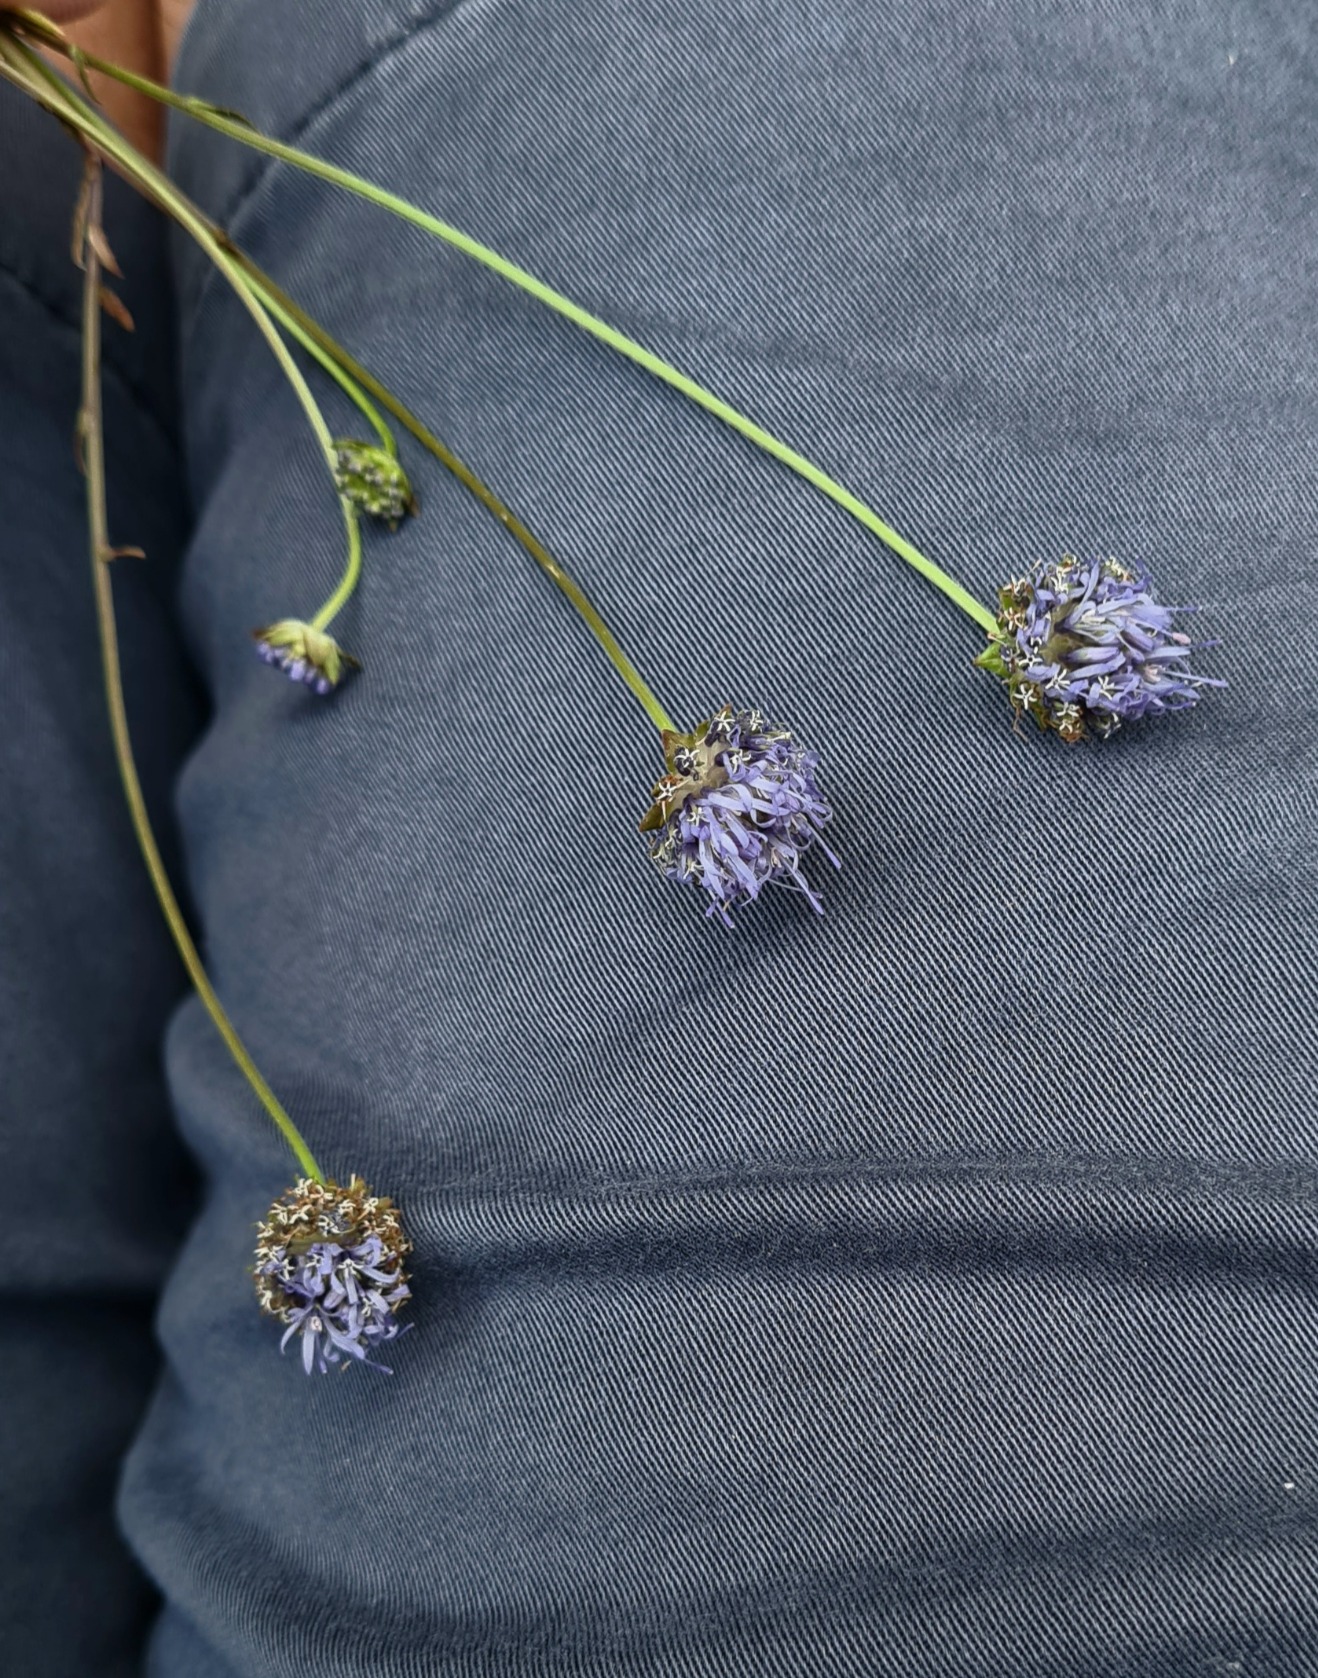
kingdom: Plantae
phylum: Tracheophyta
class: Magnoliopsida
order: Asterales
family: Campanulaceae
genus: Jasione
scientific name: Jasione montana
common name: Blåmunke
